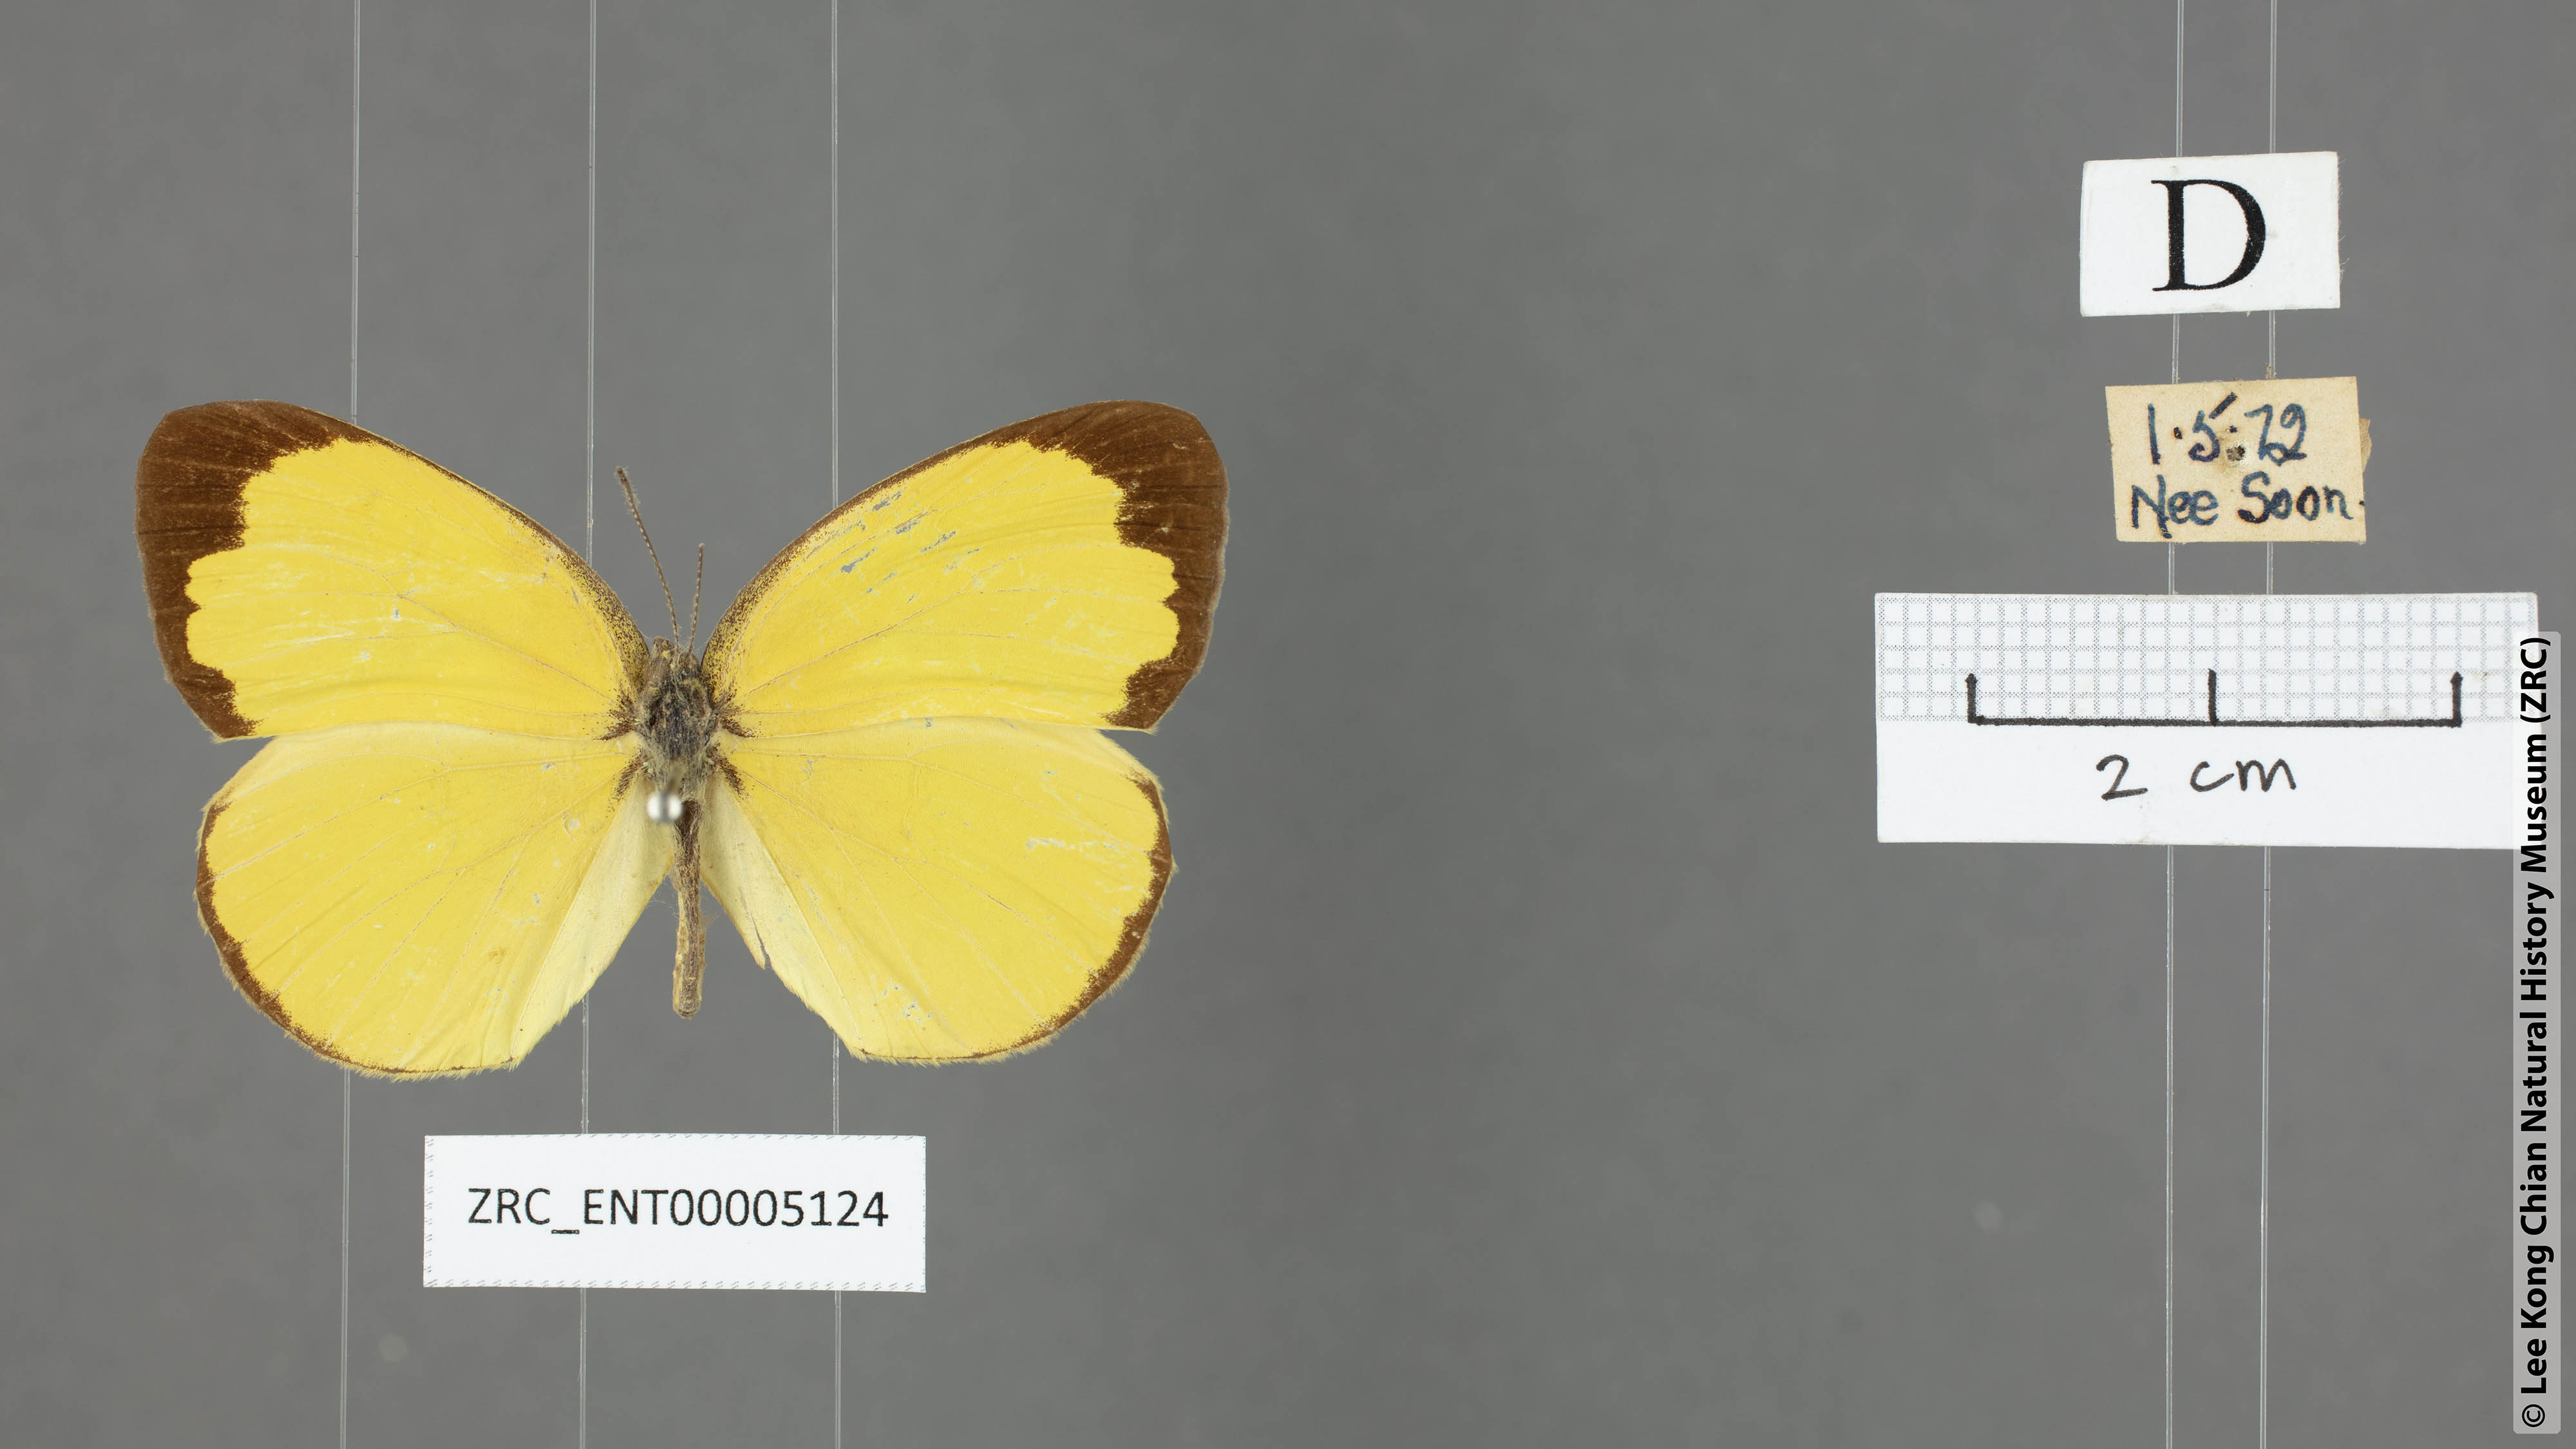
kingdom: Animalia
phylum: Arthropoda
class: Insecta
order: Lepidoptera
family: Pieridae
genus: Eurema
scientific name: Eurema blanda
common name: Three-spot grass yellow
